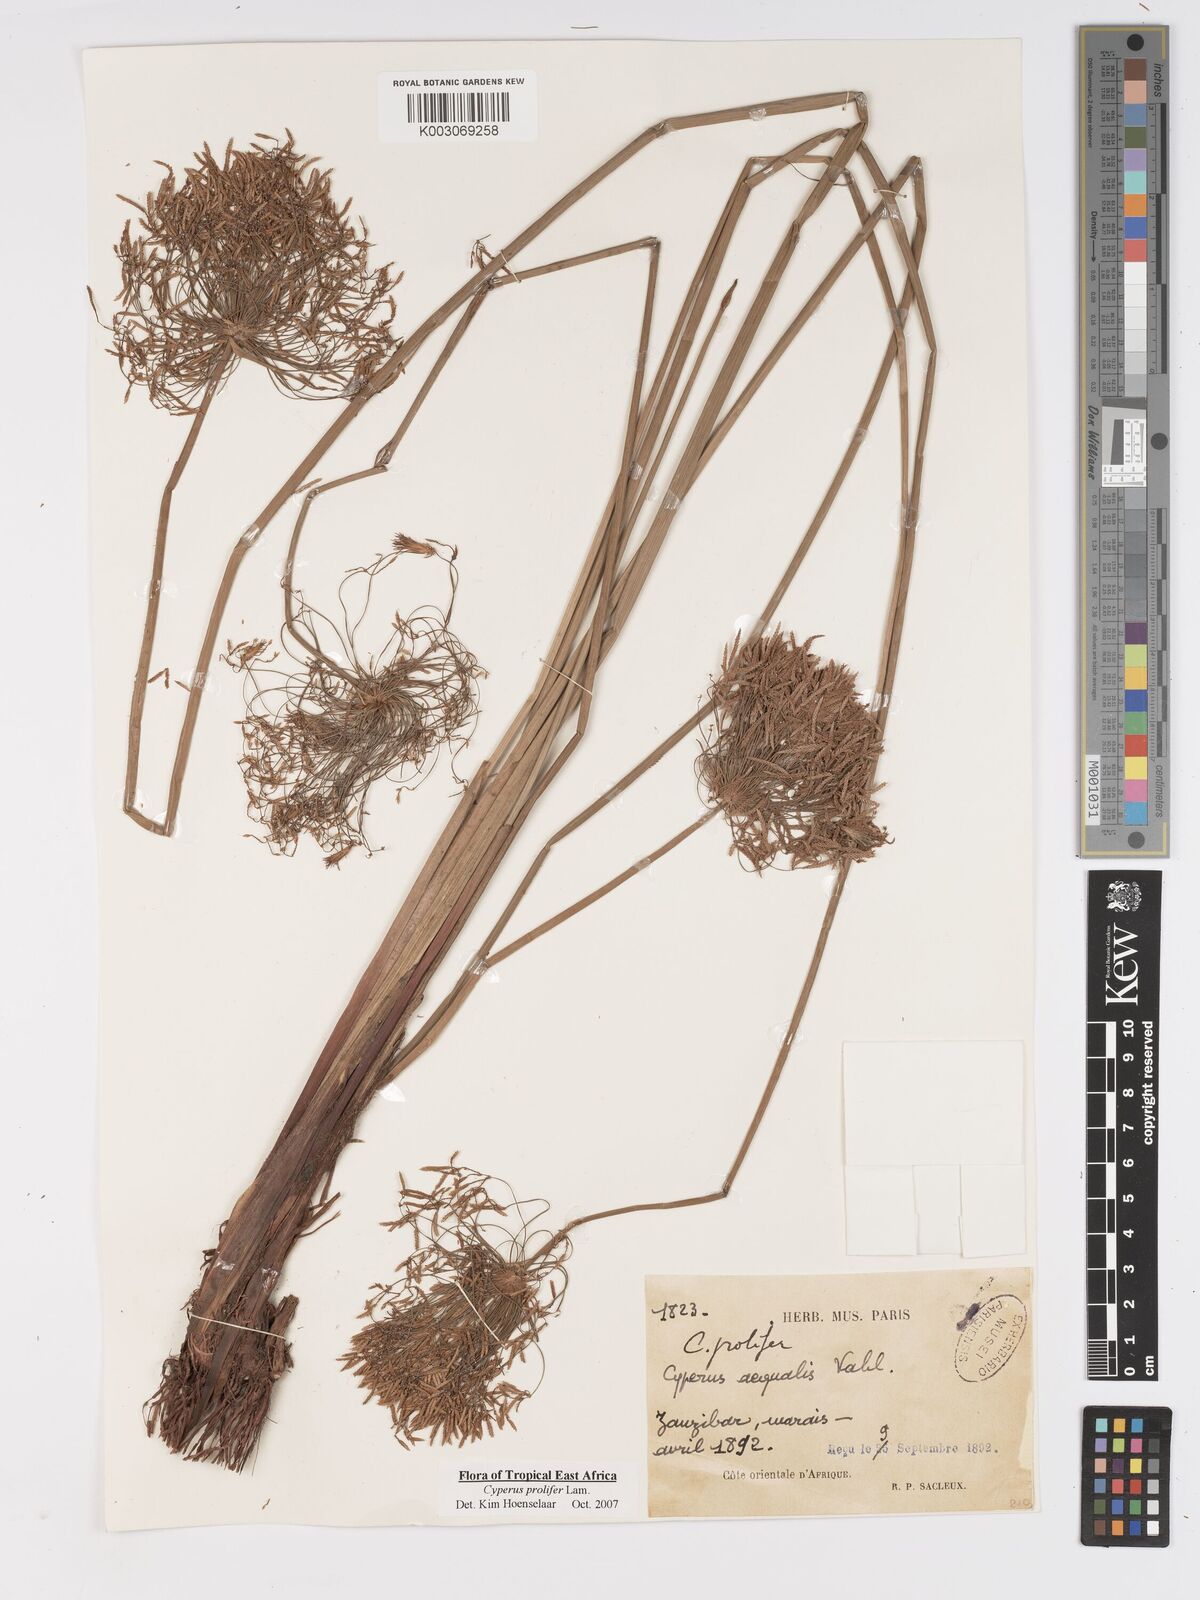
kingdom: Plantae
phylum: Tracheophyta
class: Liliopsida
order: Poales
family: Cyperaceae
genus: Cyperus
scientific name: Cyperus prolifer
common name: Miniature flatsedge
